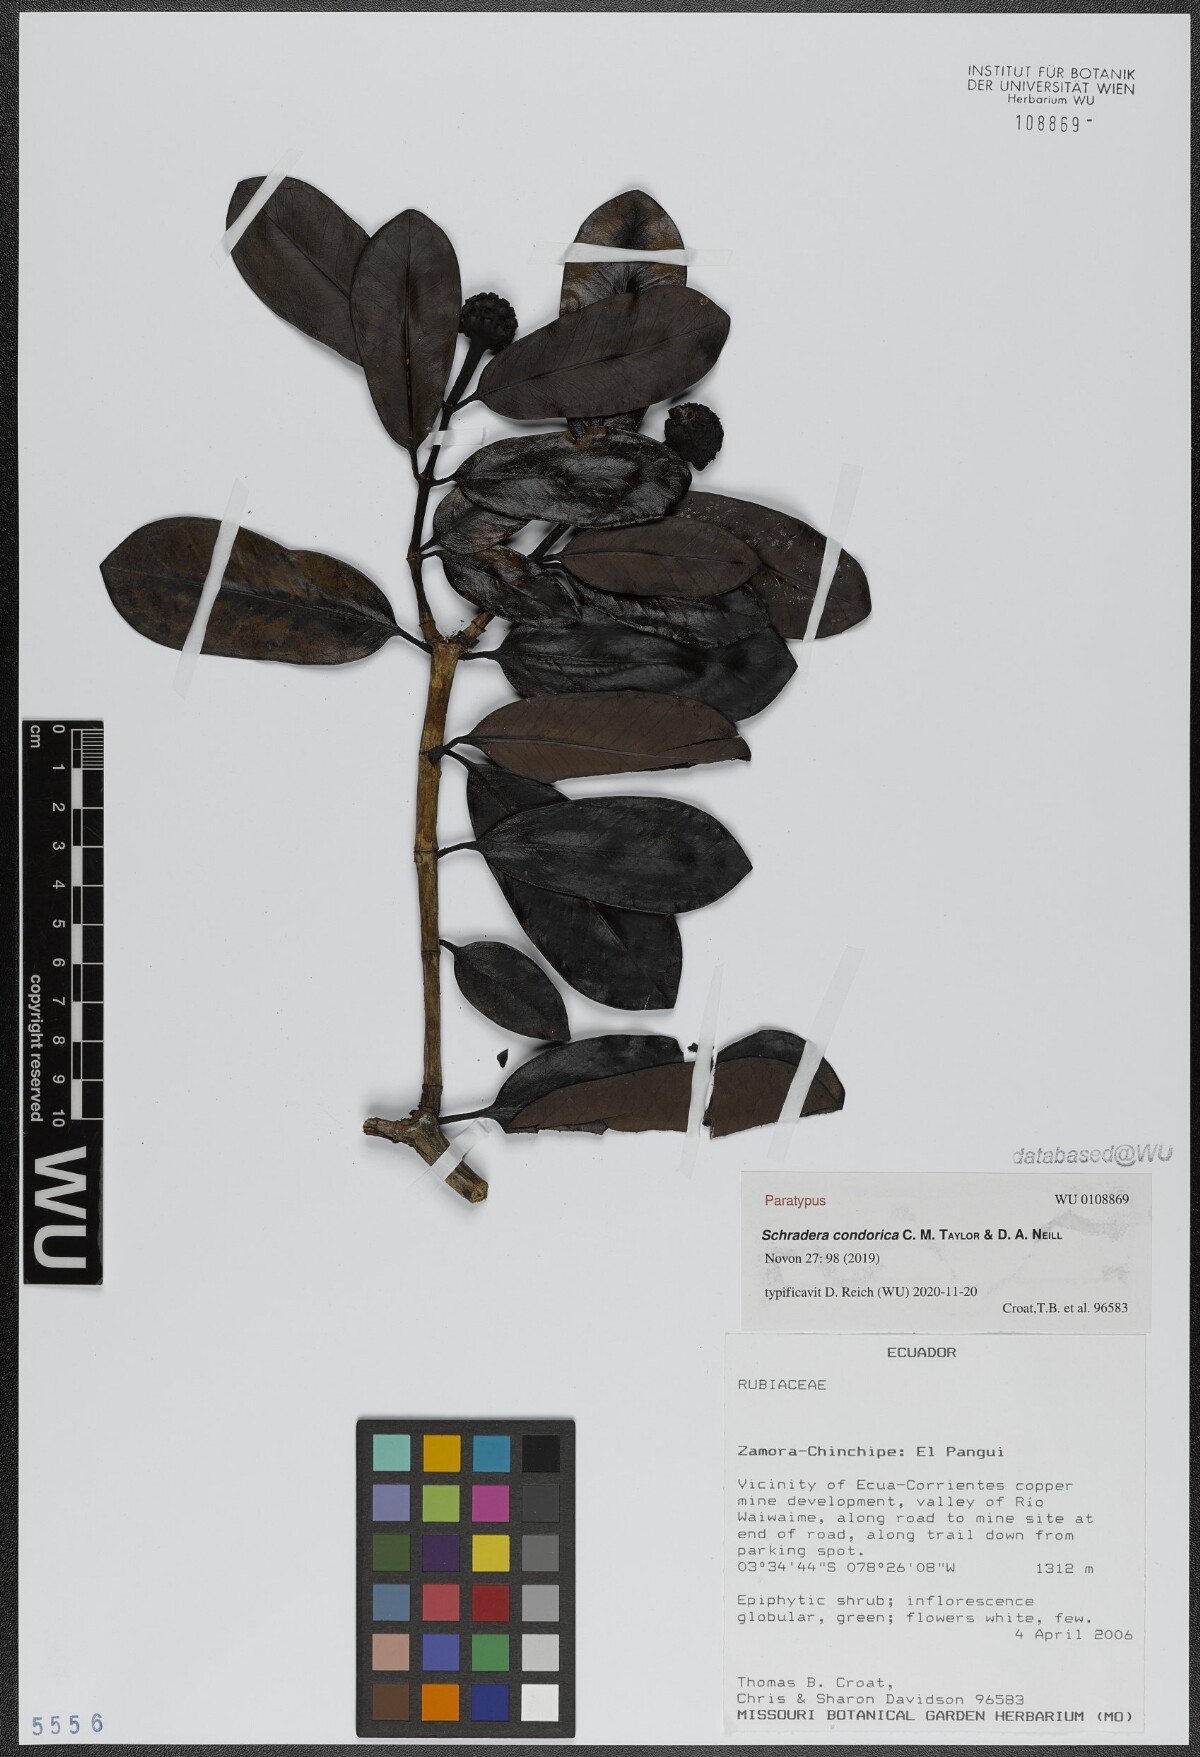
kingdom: Plantae
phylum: Tracheophyta
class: Magnoliopsida
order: Gentianales
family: Rubiaceae
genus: Schradera
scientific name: Schradera condorica
